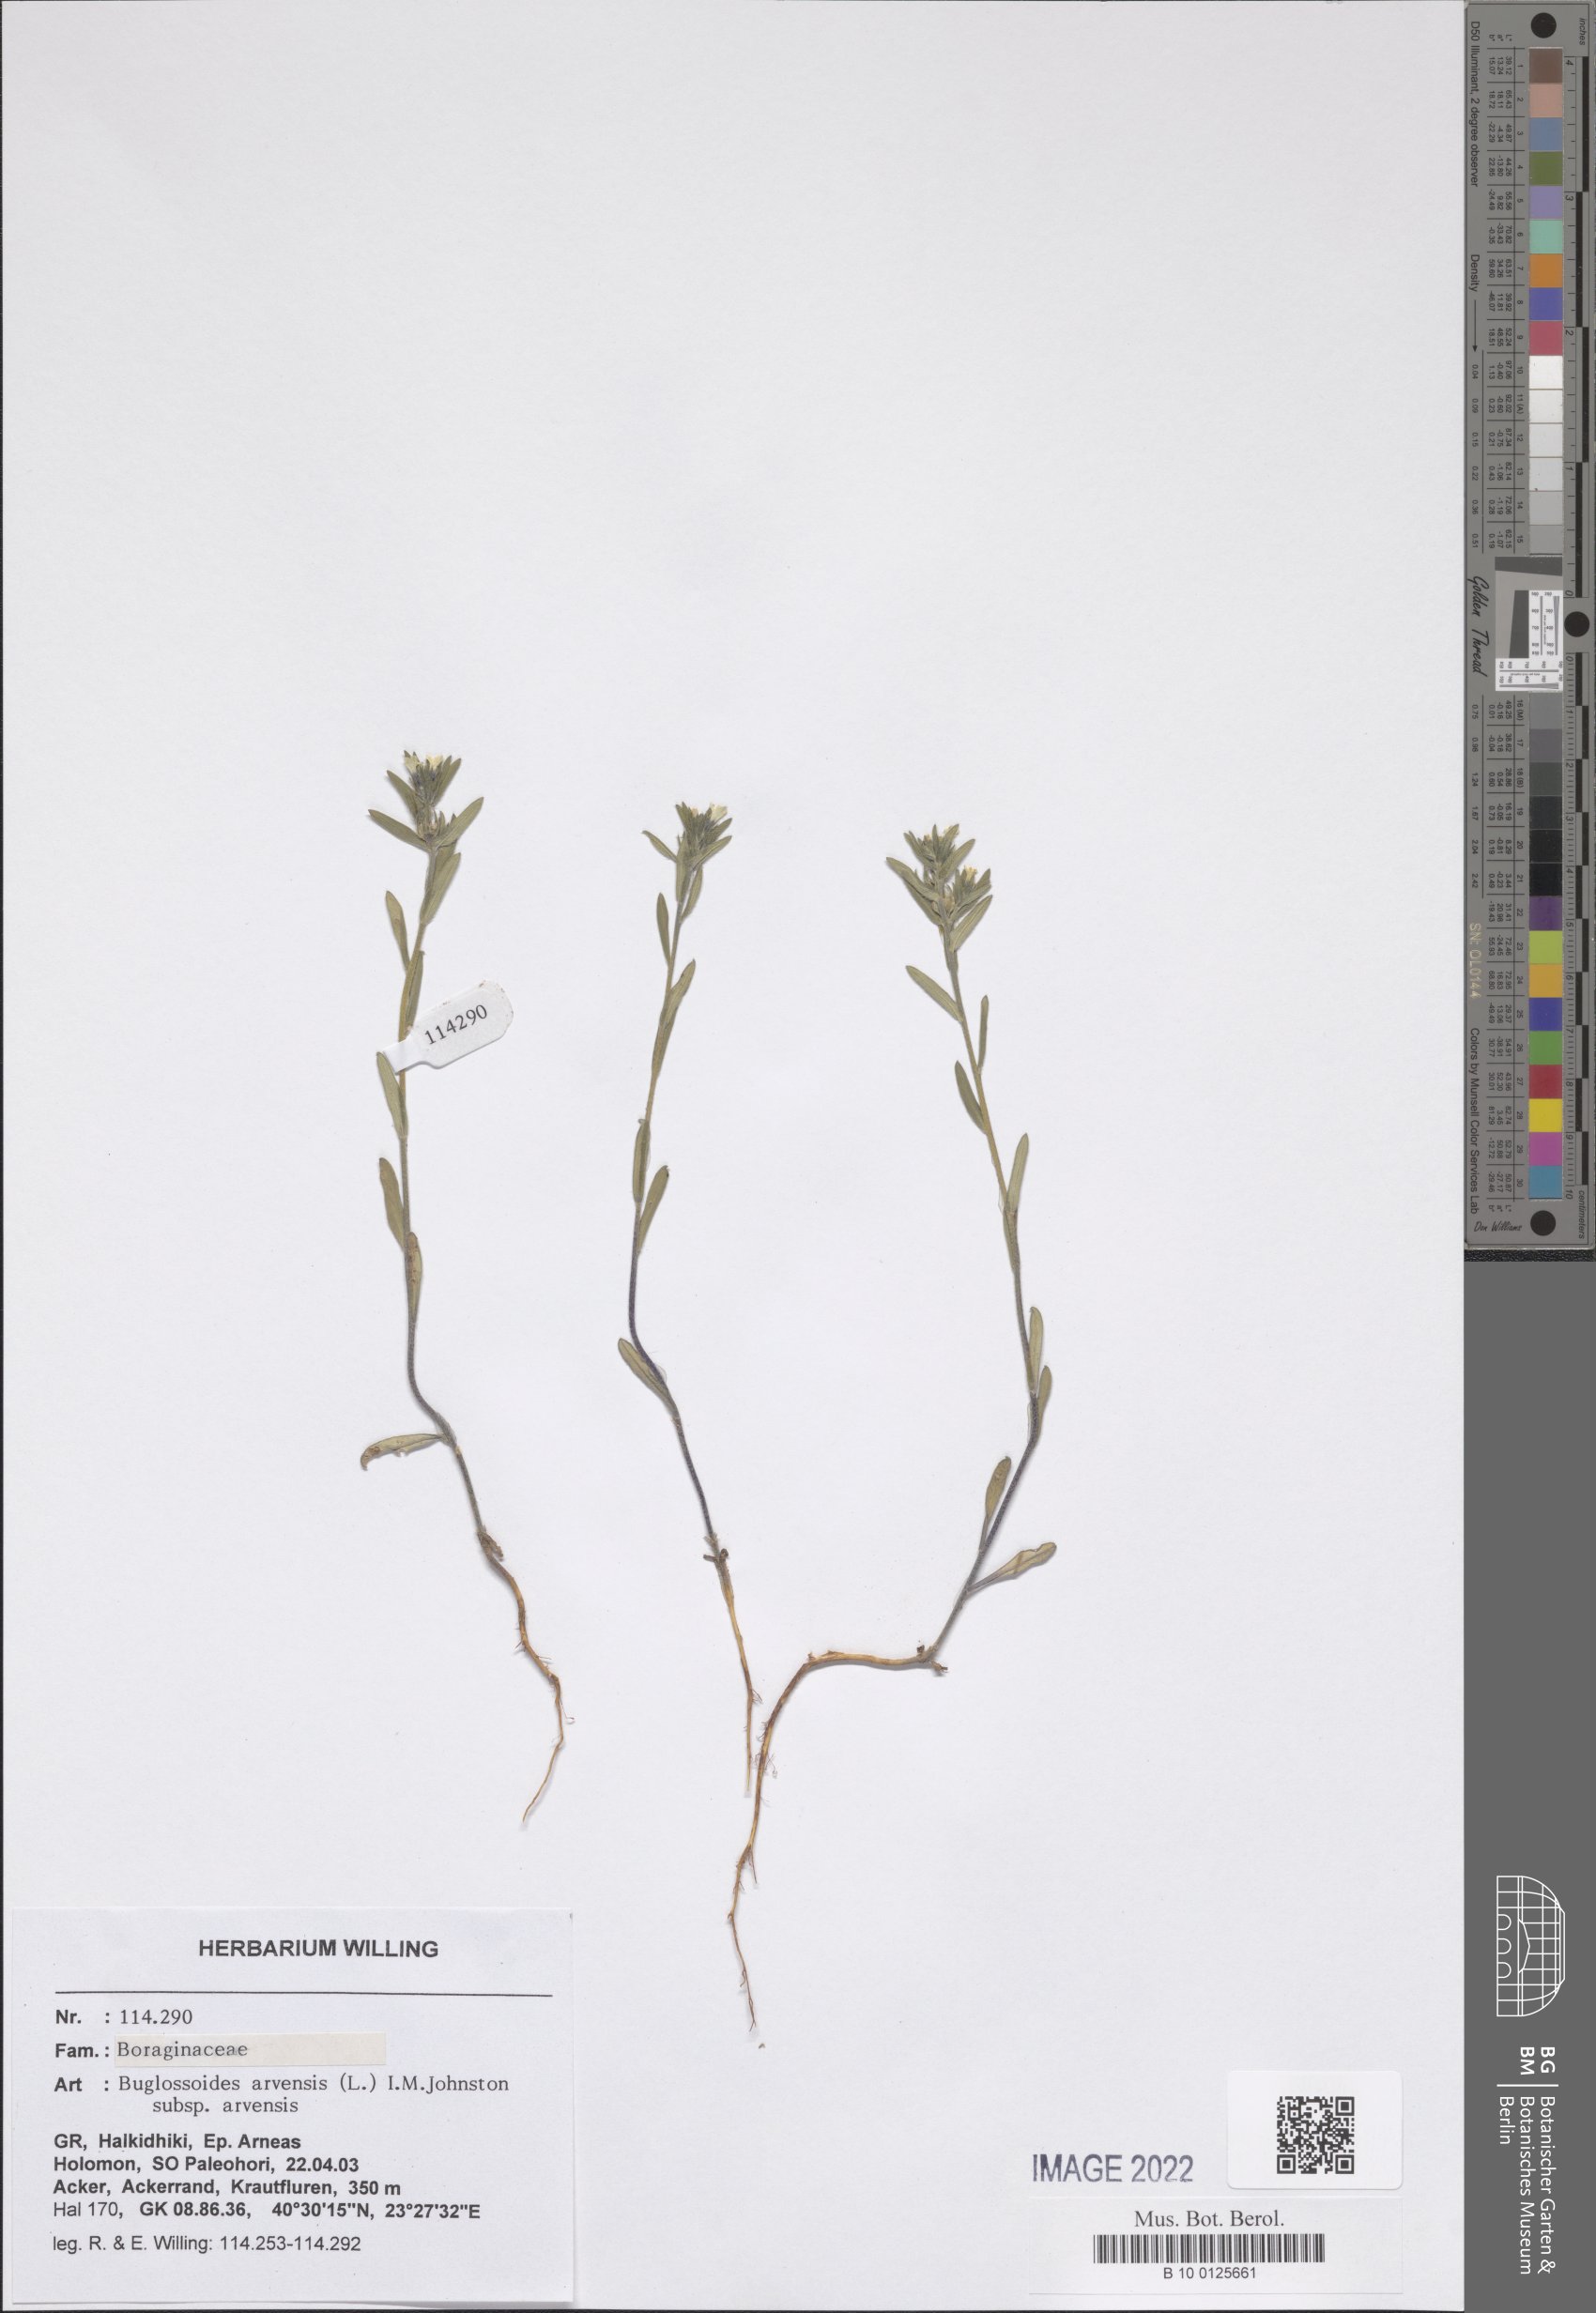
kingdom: Plantae
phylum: Tracheophyta
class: Magnoliopsida
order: Boraginales
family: Boraginaceae
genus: Buglossoides
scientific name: Buglossoides arvensis
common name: Corn gromwell
